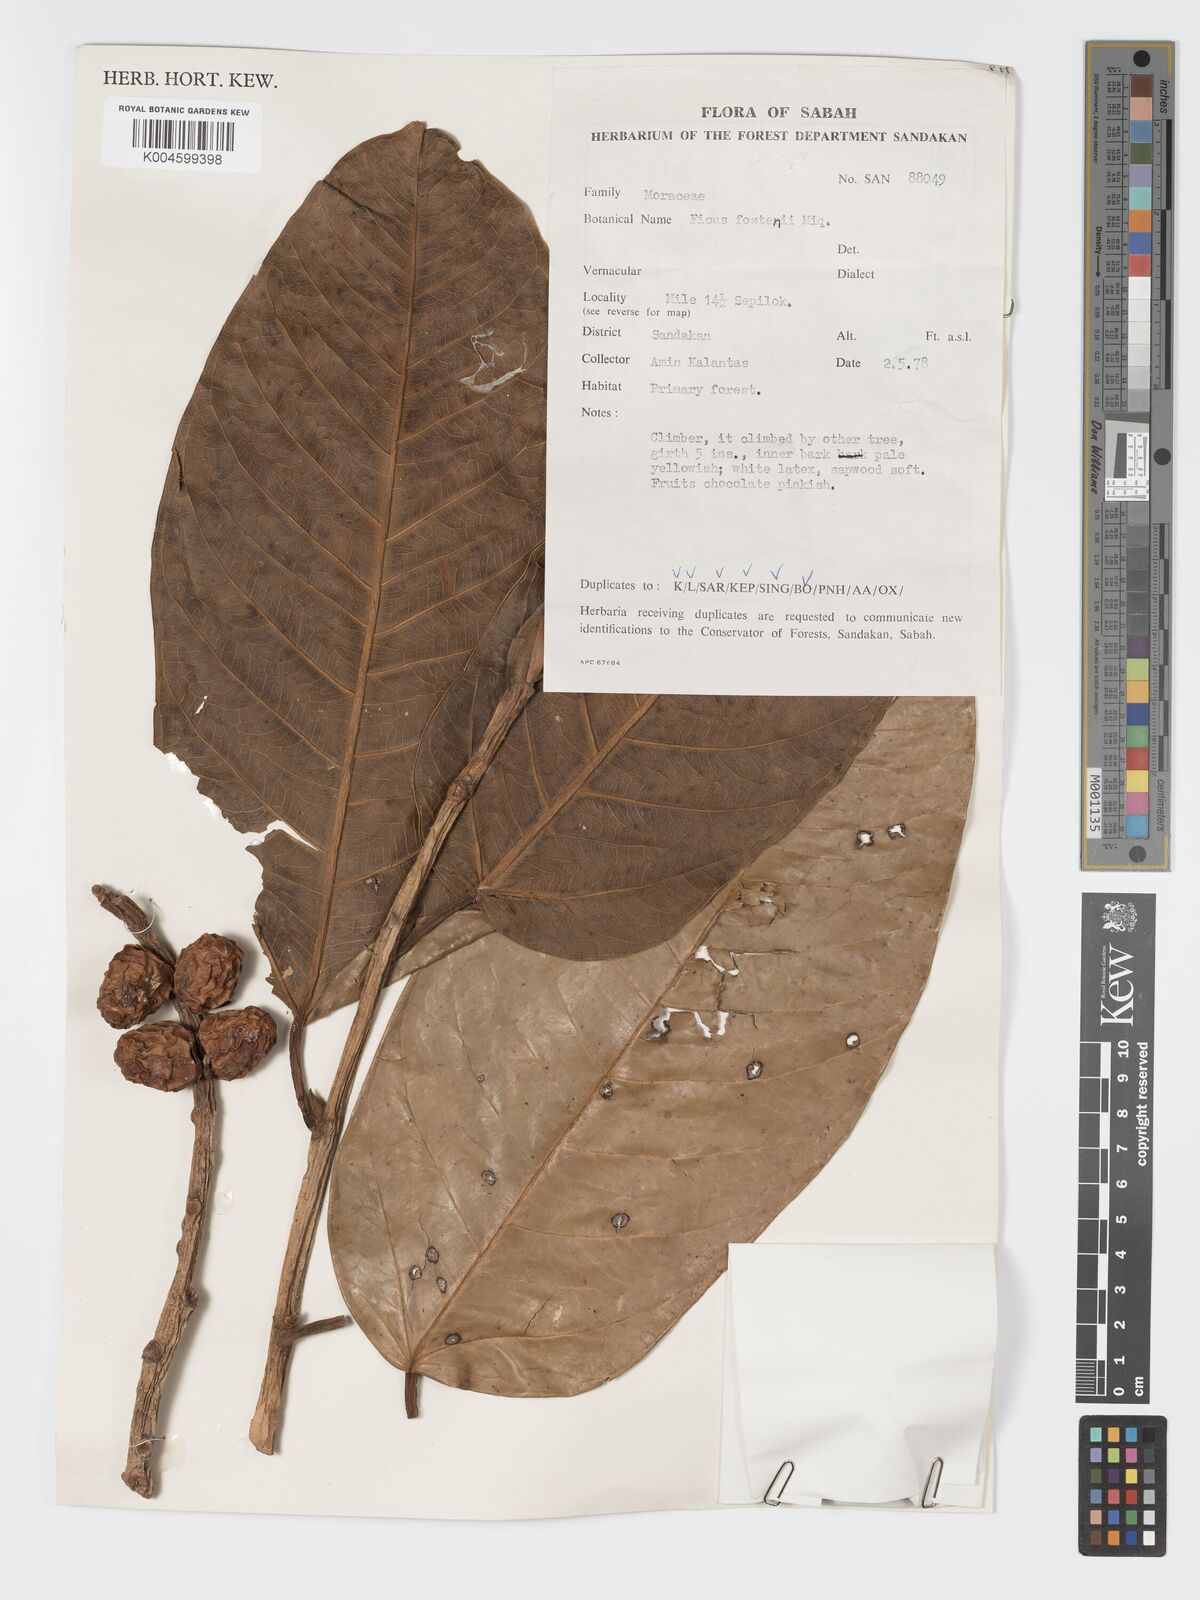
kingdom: Plantae
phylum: Tracheophyta
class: Magnoliopsida
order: Rosales
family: Moraceae
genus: Ficus
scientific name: Ficus forstenii
